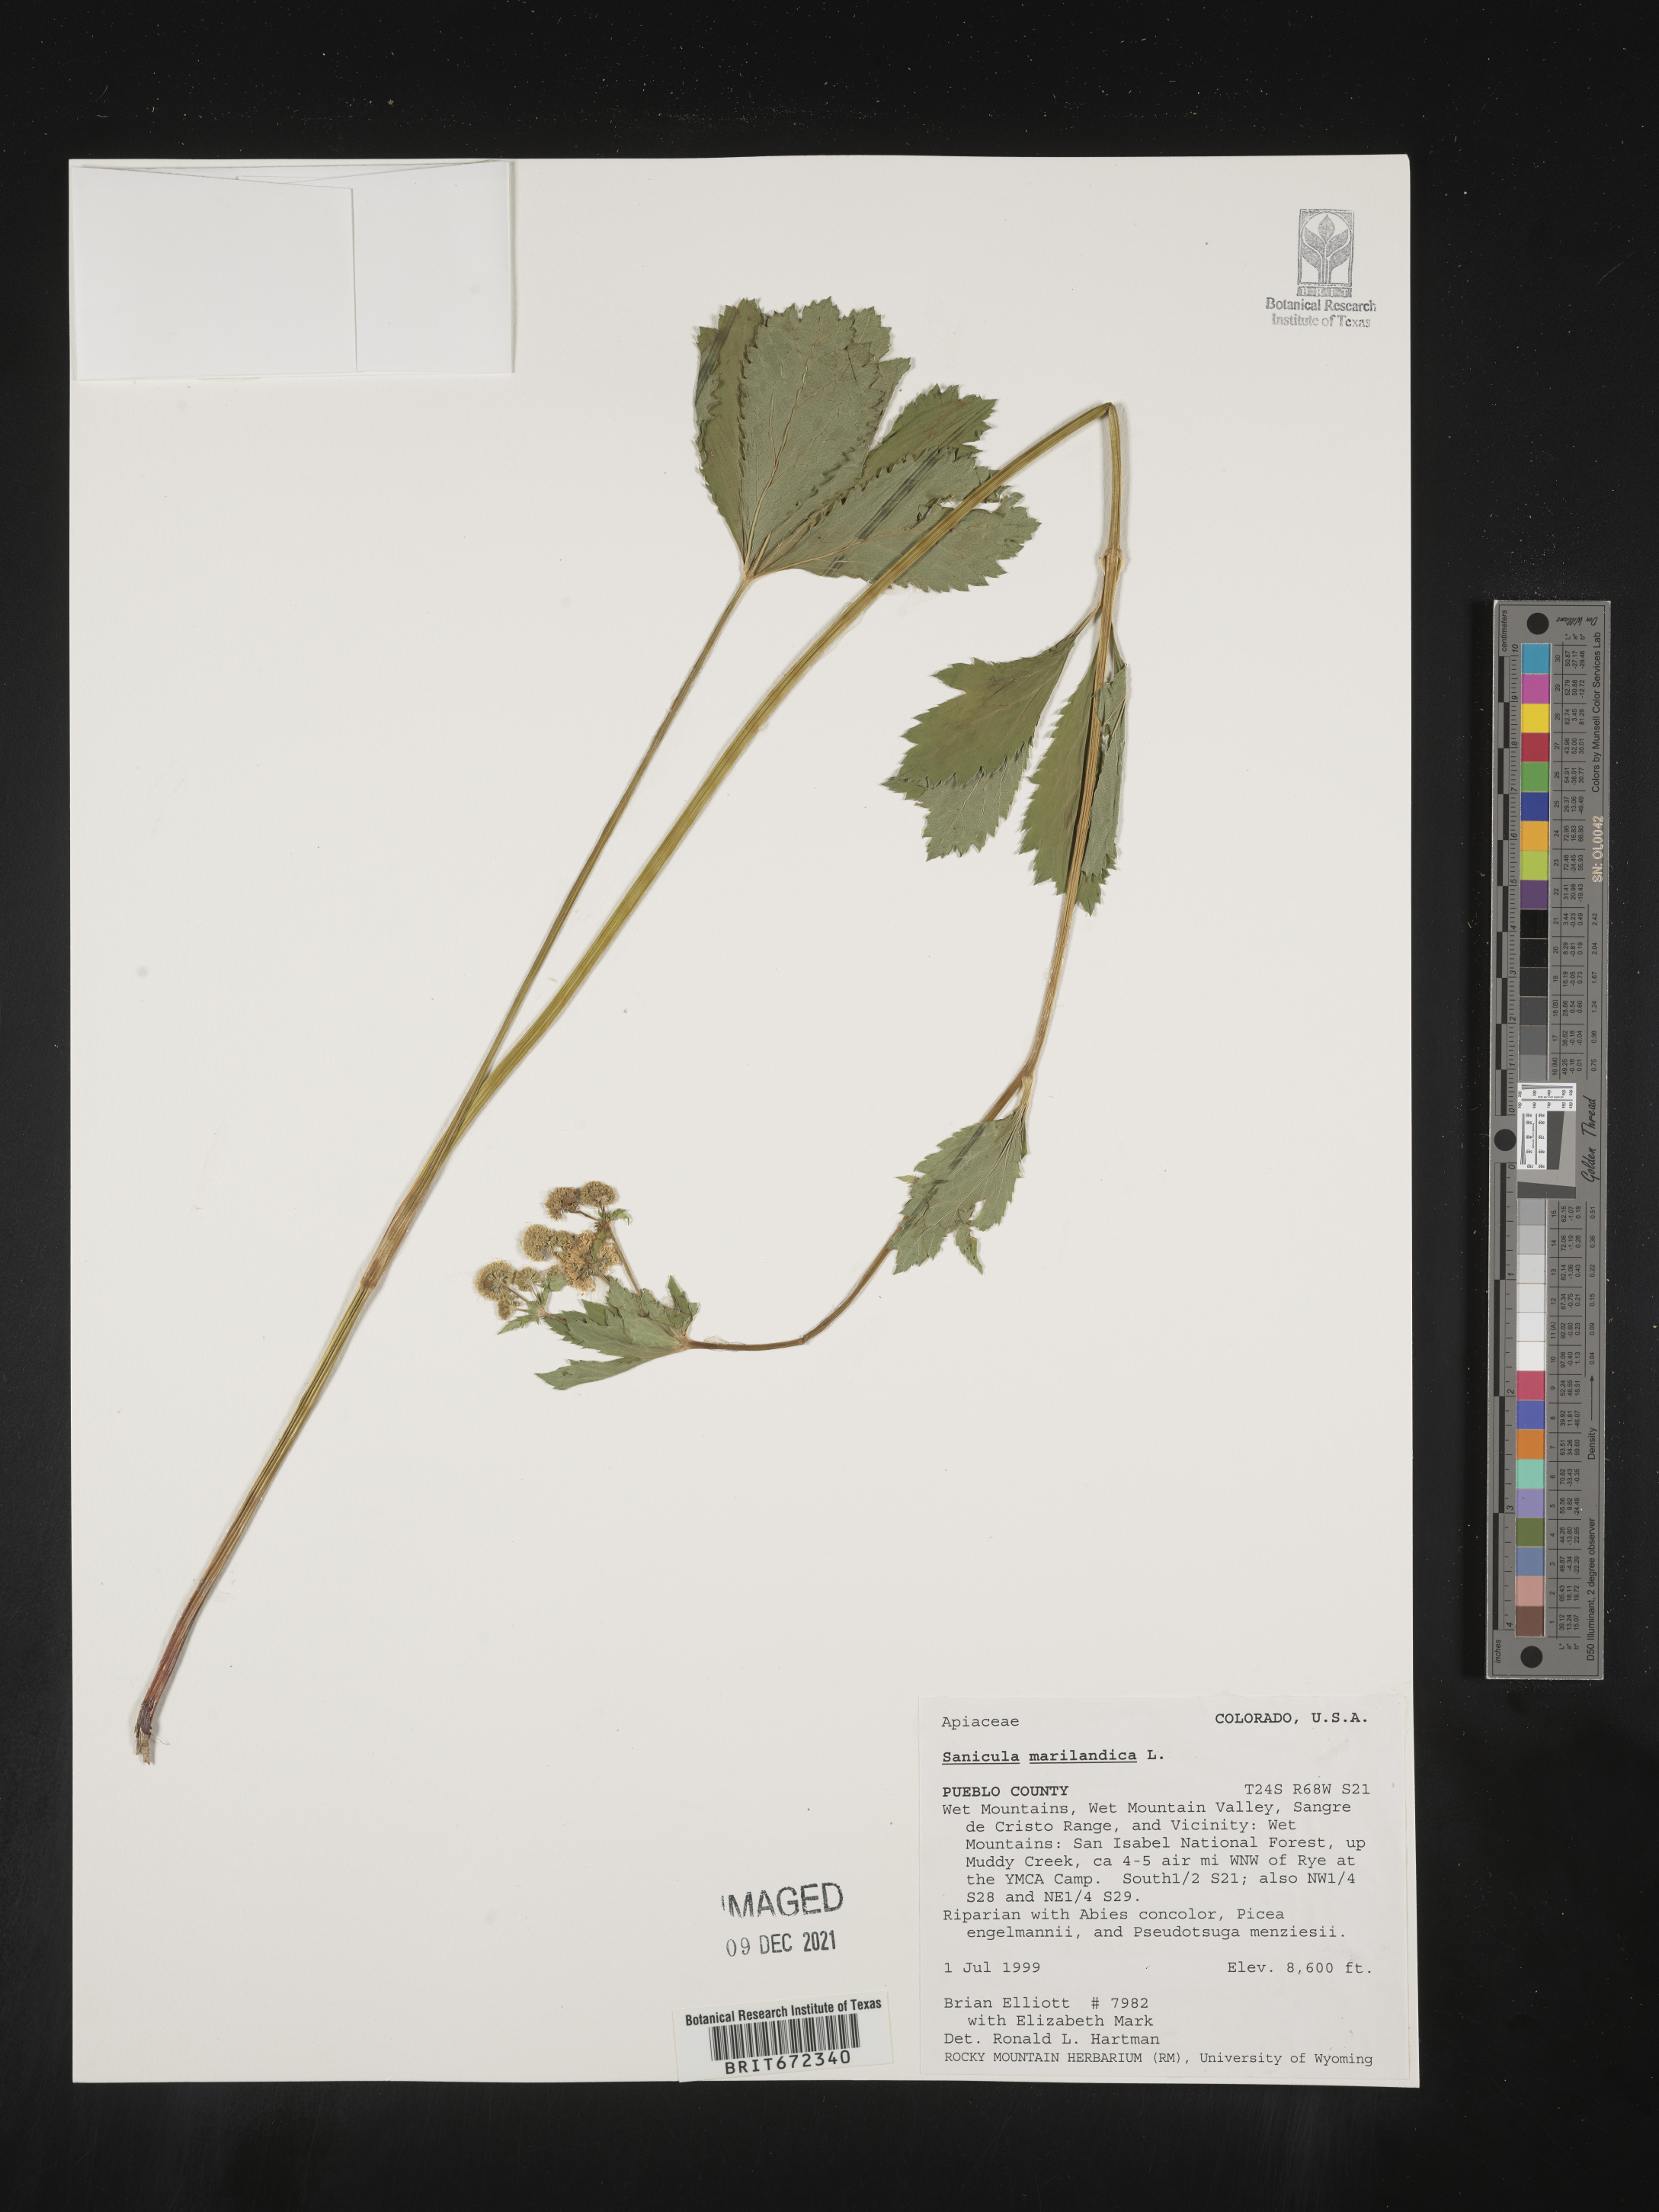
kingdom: Plantae
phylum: Tracheophyta
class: Magnoliopsida
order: Apiales
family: Apiaceae
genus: Sanicula
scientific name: Sanicula marilandica
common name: Black snakeroot
